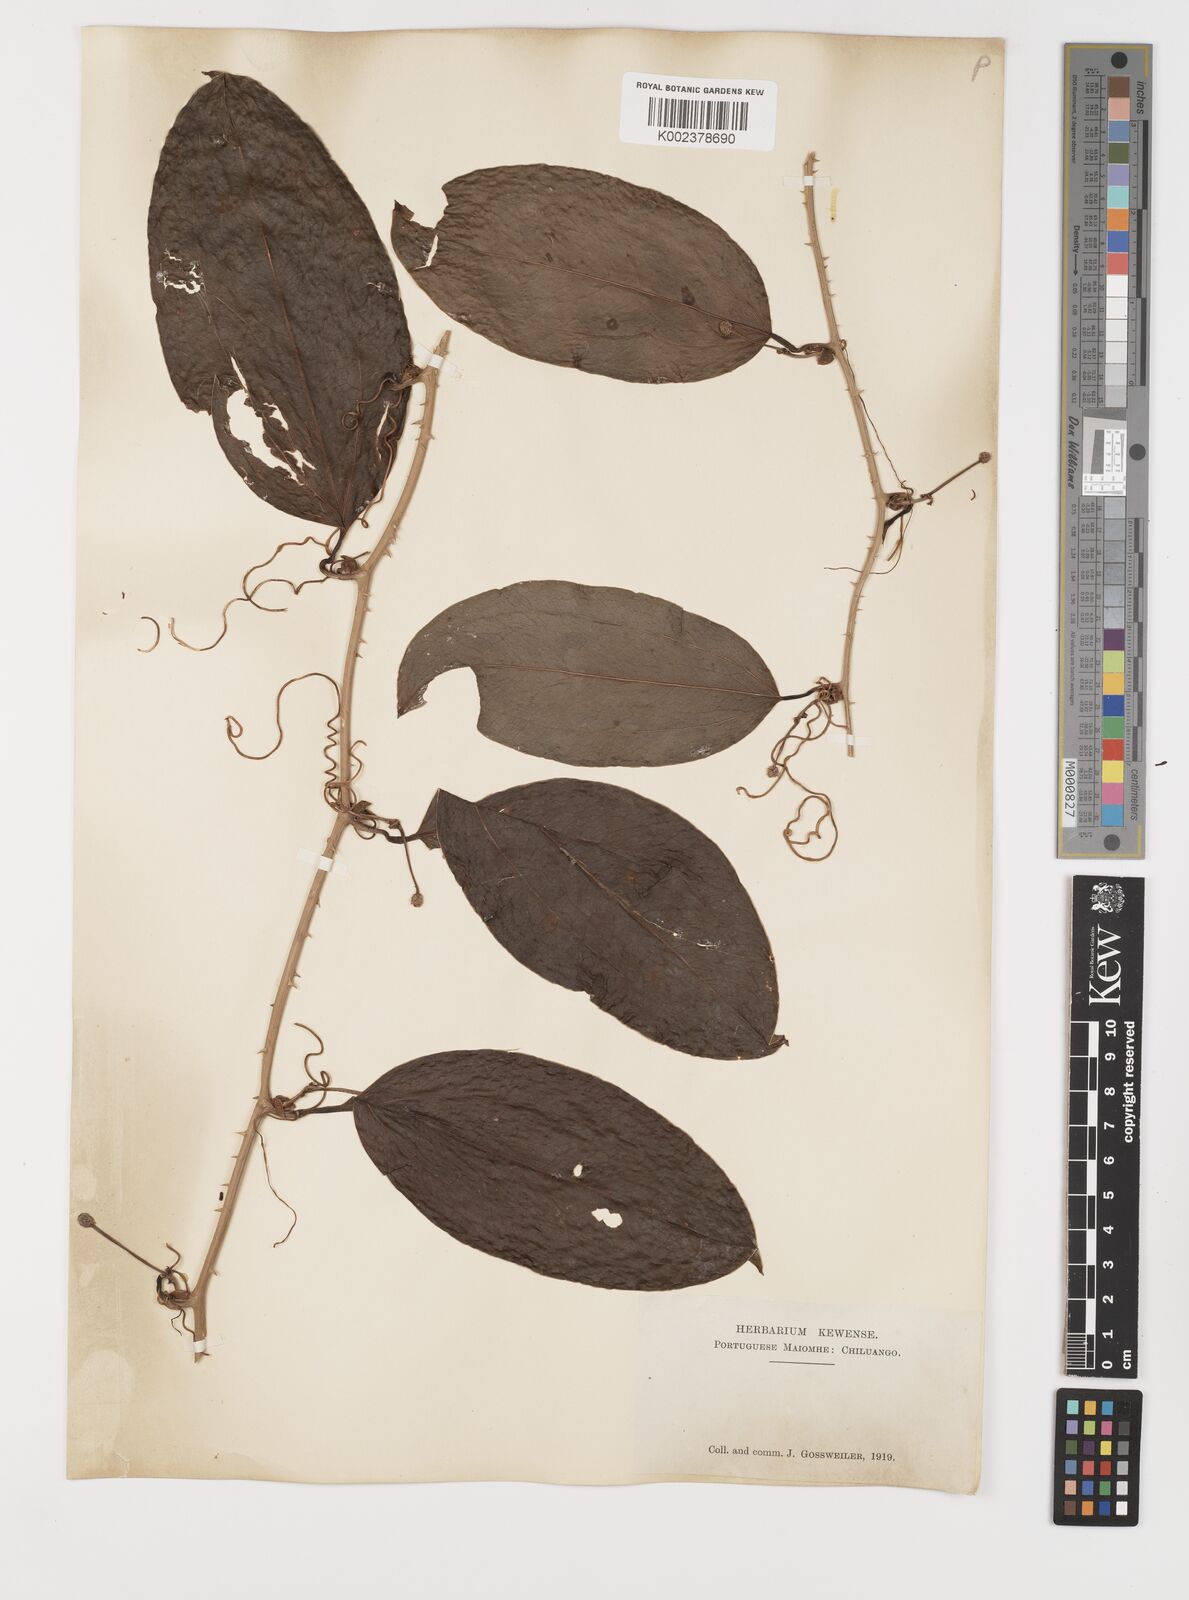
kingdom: Plantae
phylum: Tracheophyta
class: Liliopsida
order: Liliales
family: Smilacaceae
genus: Smilax
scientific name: Smilax anceps
